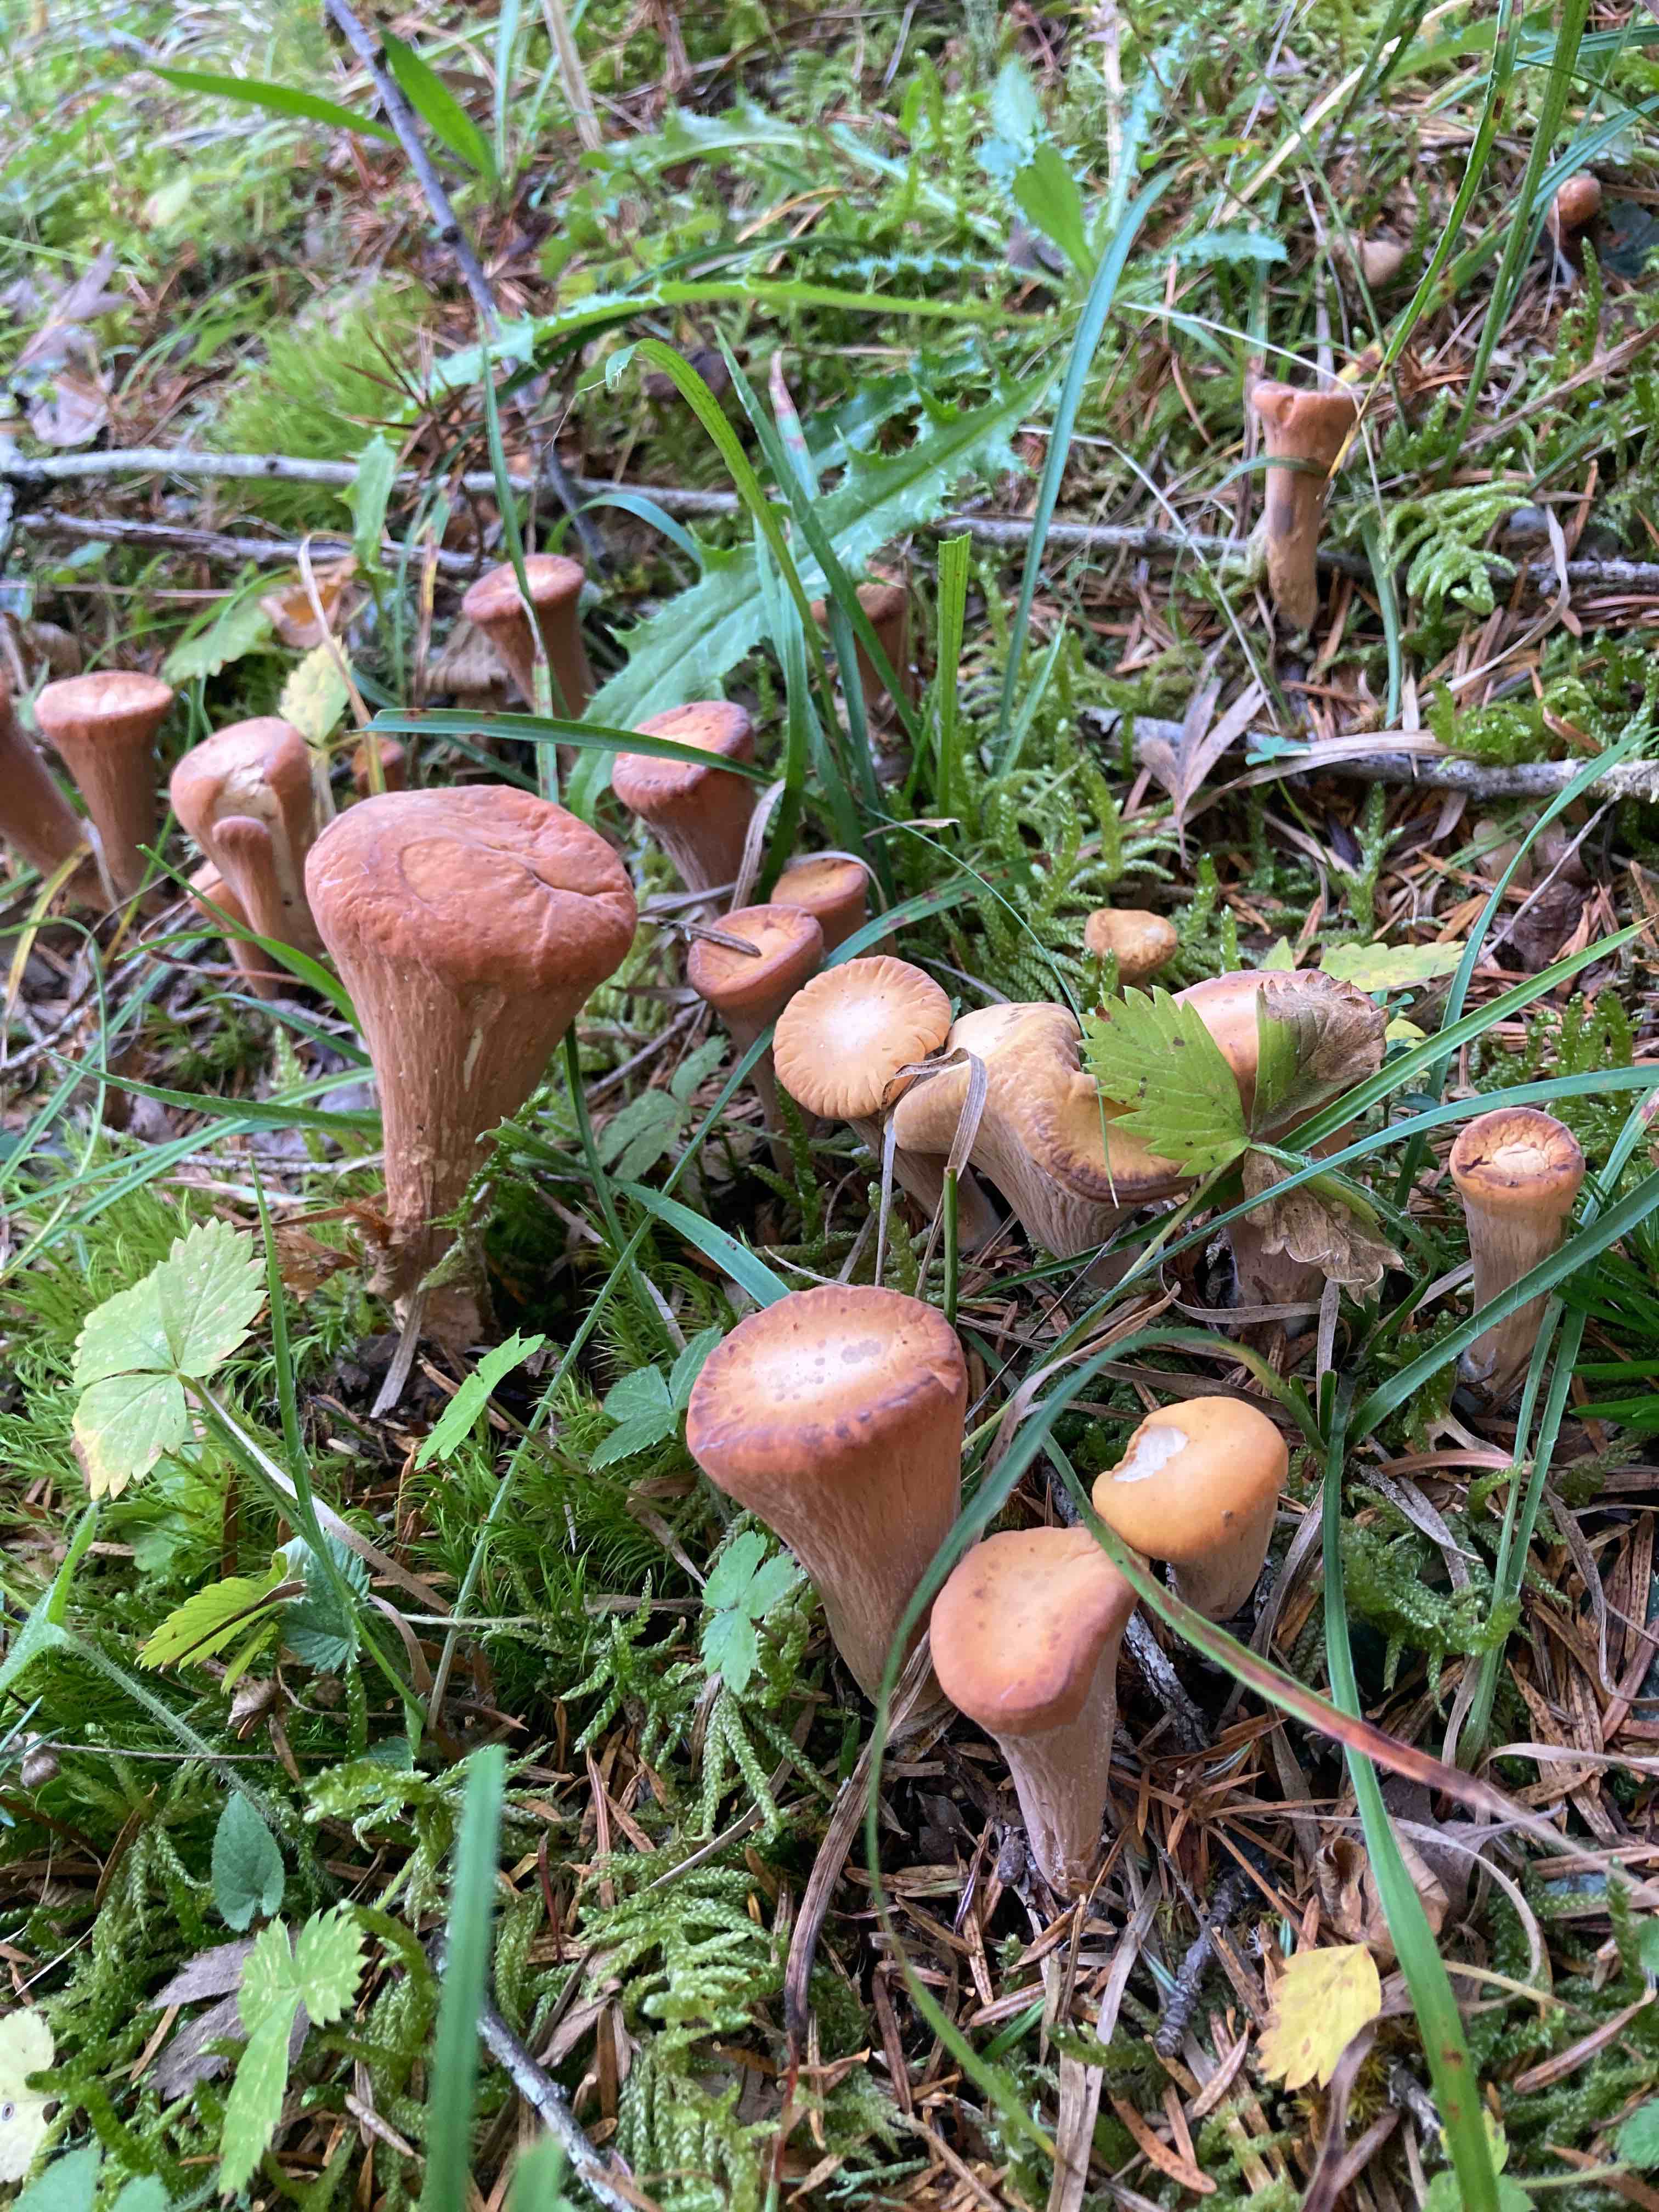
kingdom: Fungi
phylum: Basidiomycota
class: Agaricomycetes
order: Gomphales
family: Clavariadelphaceae
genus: Clavariadelphus
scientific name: Clavariadelphus truncatus
